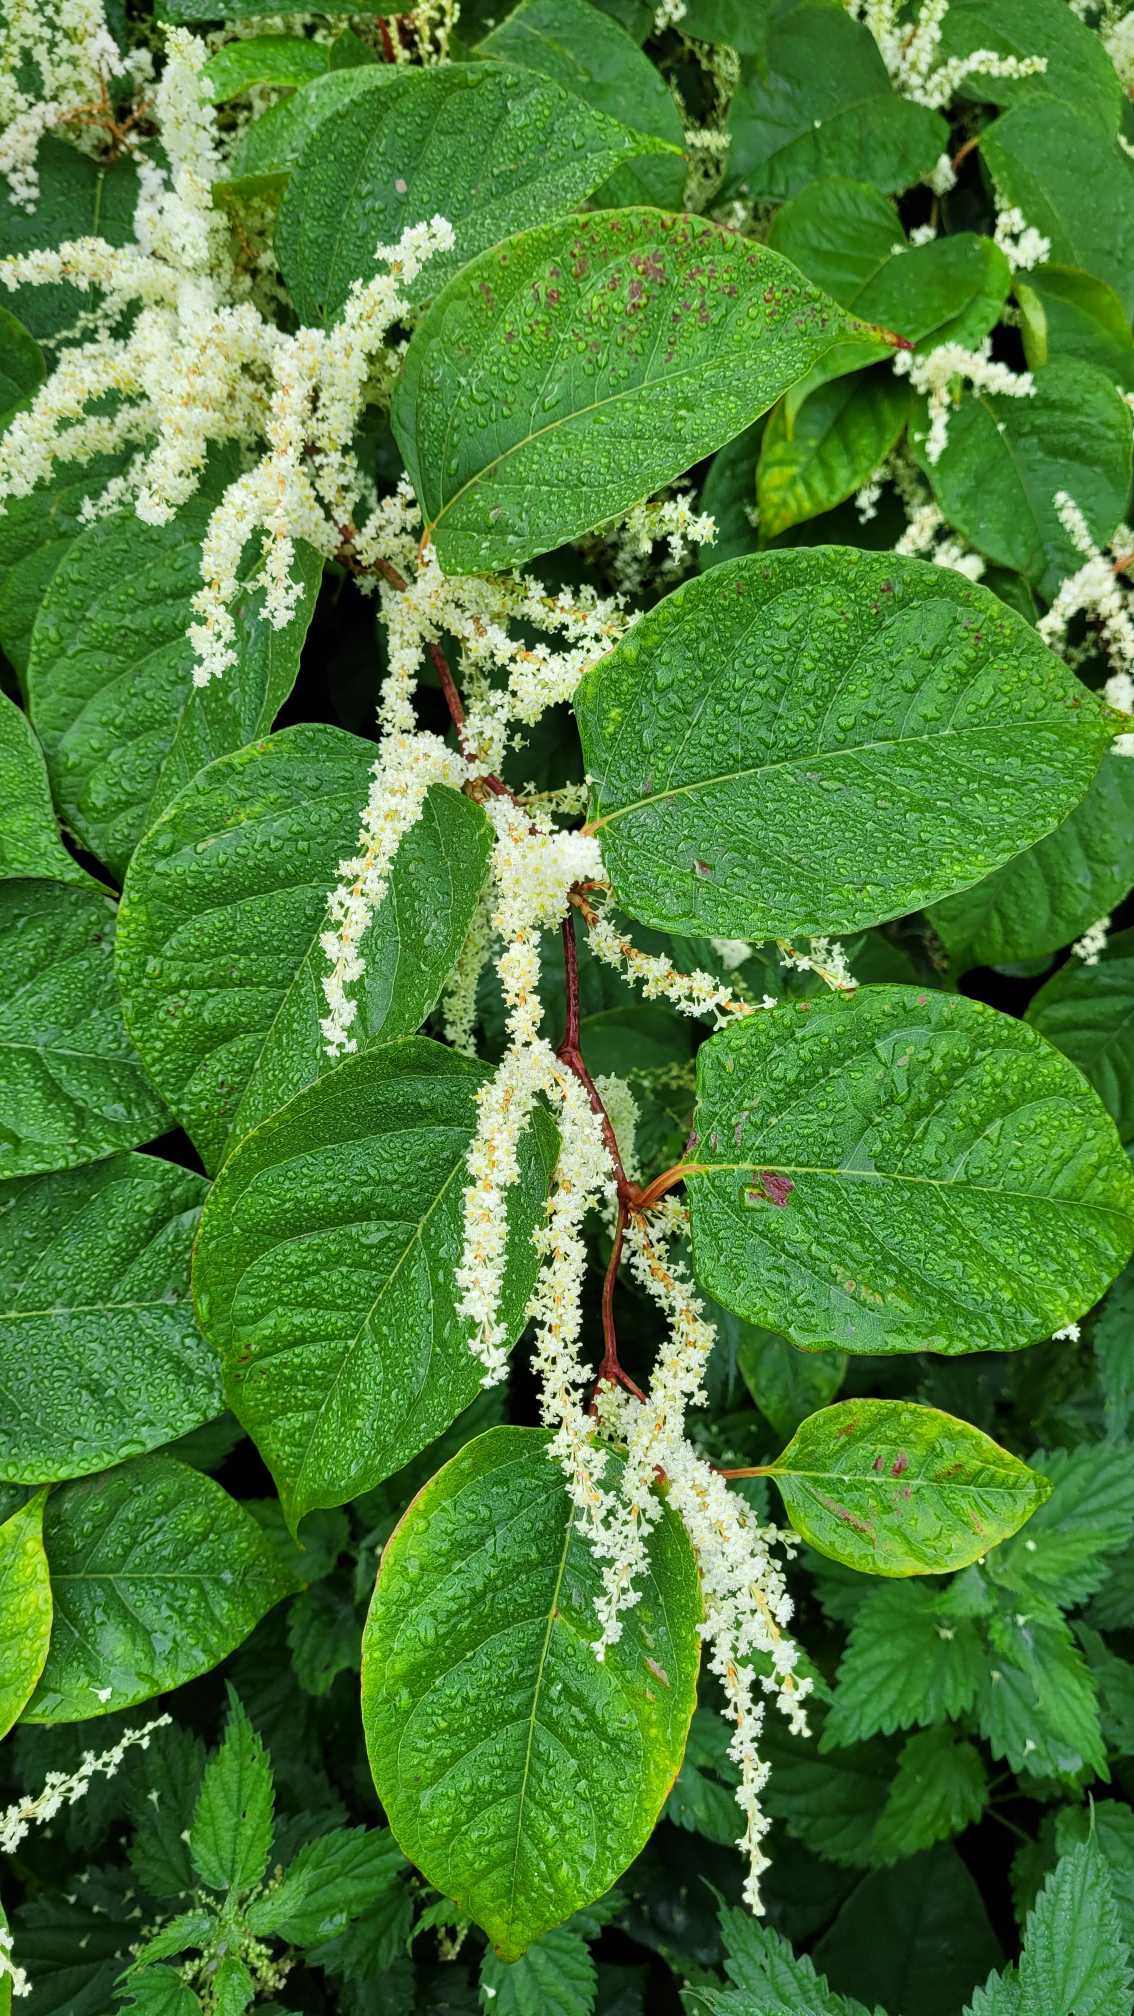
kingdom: Plantae
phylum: Tracheophyta
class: Magnoliopsida
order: Caryophyllales
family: Polygonaceae
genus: Reynoutria
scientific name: Reynoutria japonica
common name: Japan-pileurt
